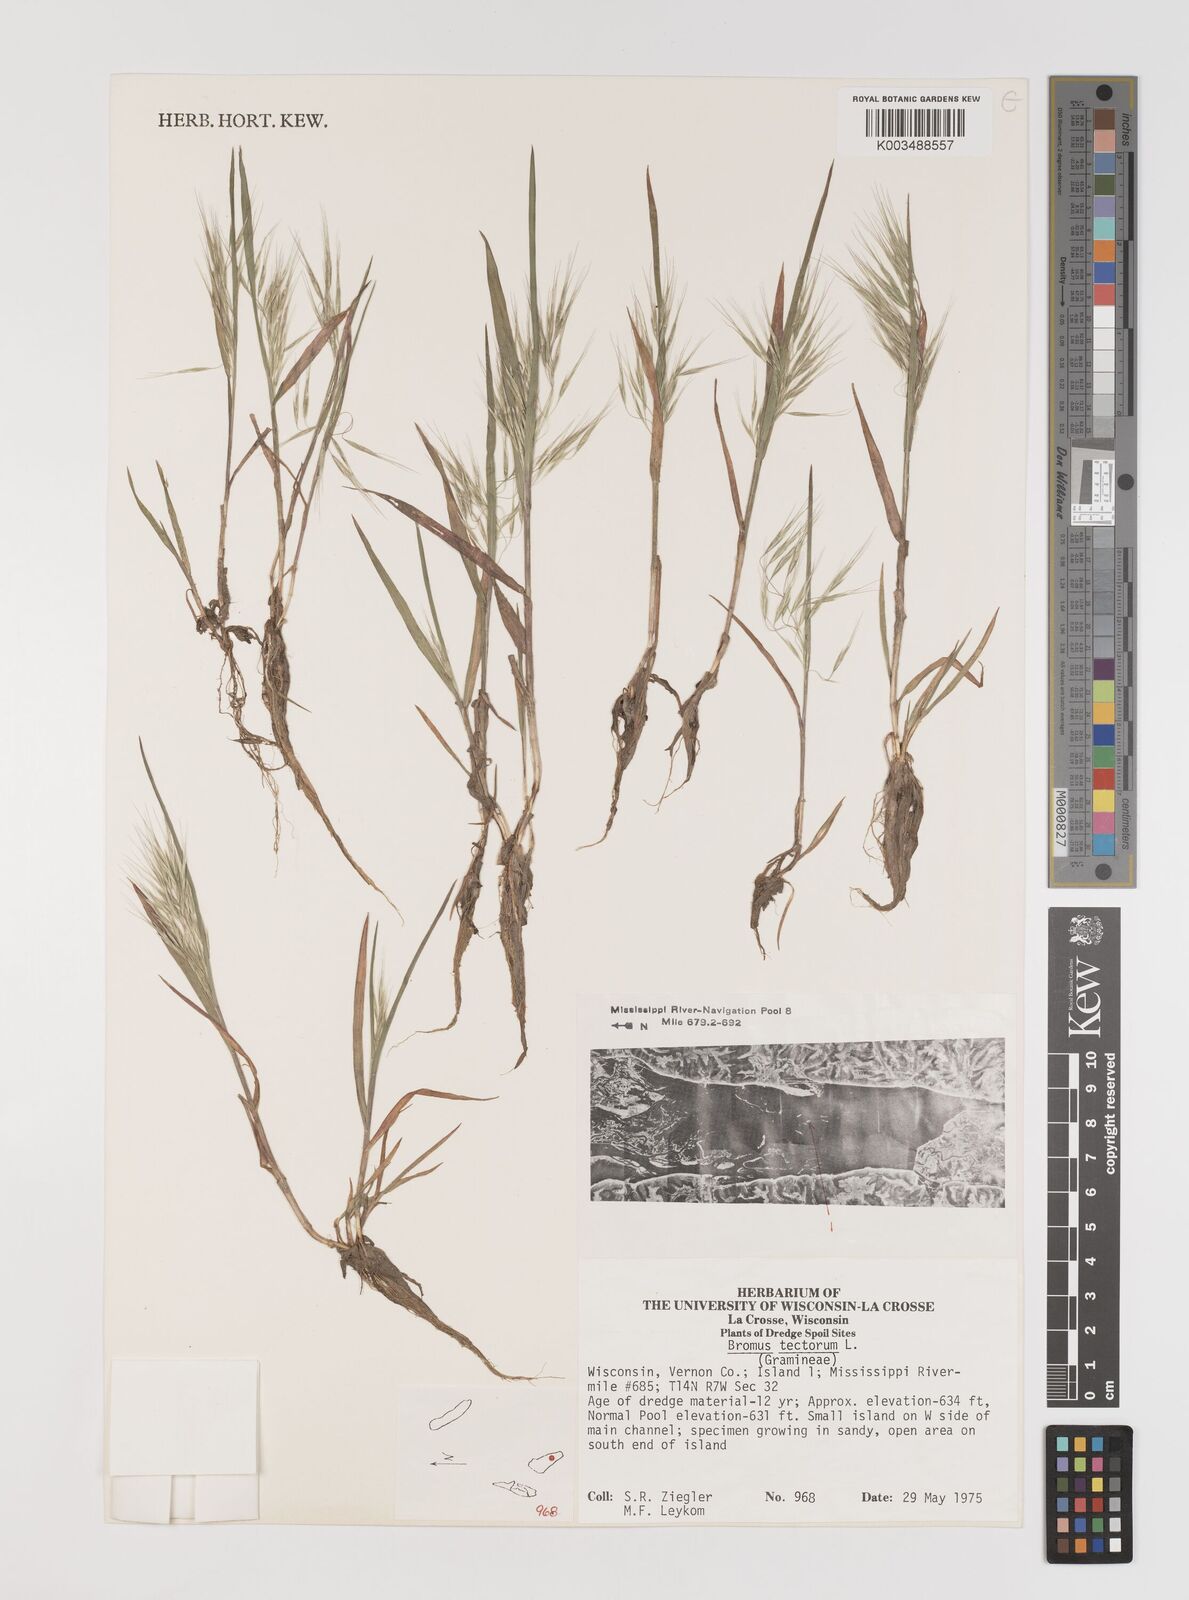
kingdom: Plantae
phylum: Tracheophyta
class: Liliopsida
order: Poales
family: Poaceae
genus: Bromus
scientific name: Bromus tectorum
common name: Cheatgrass
